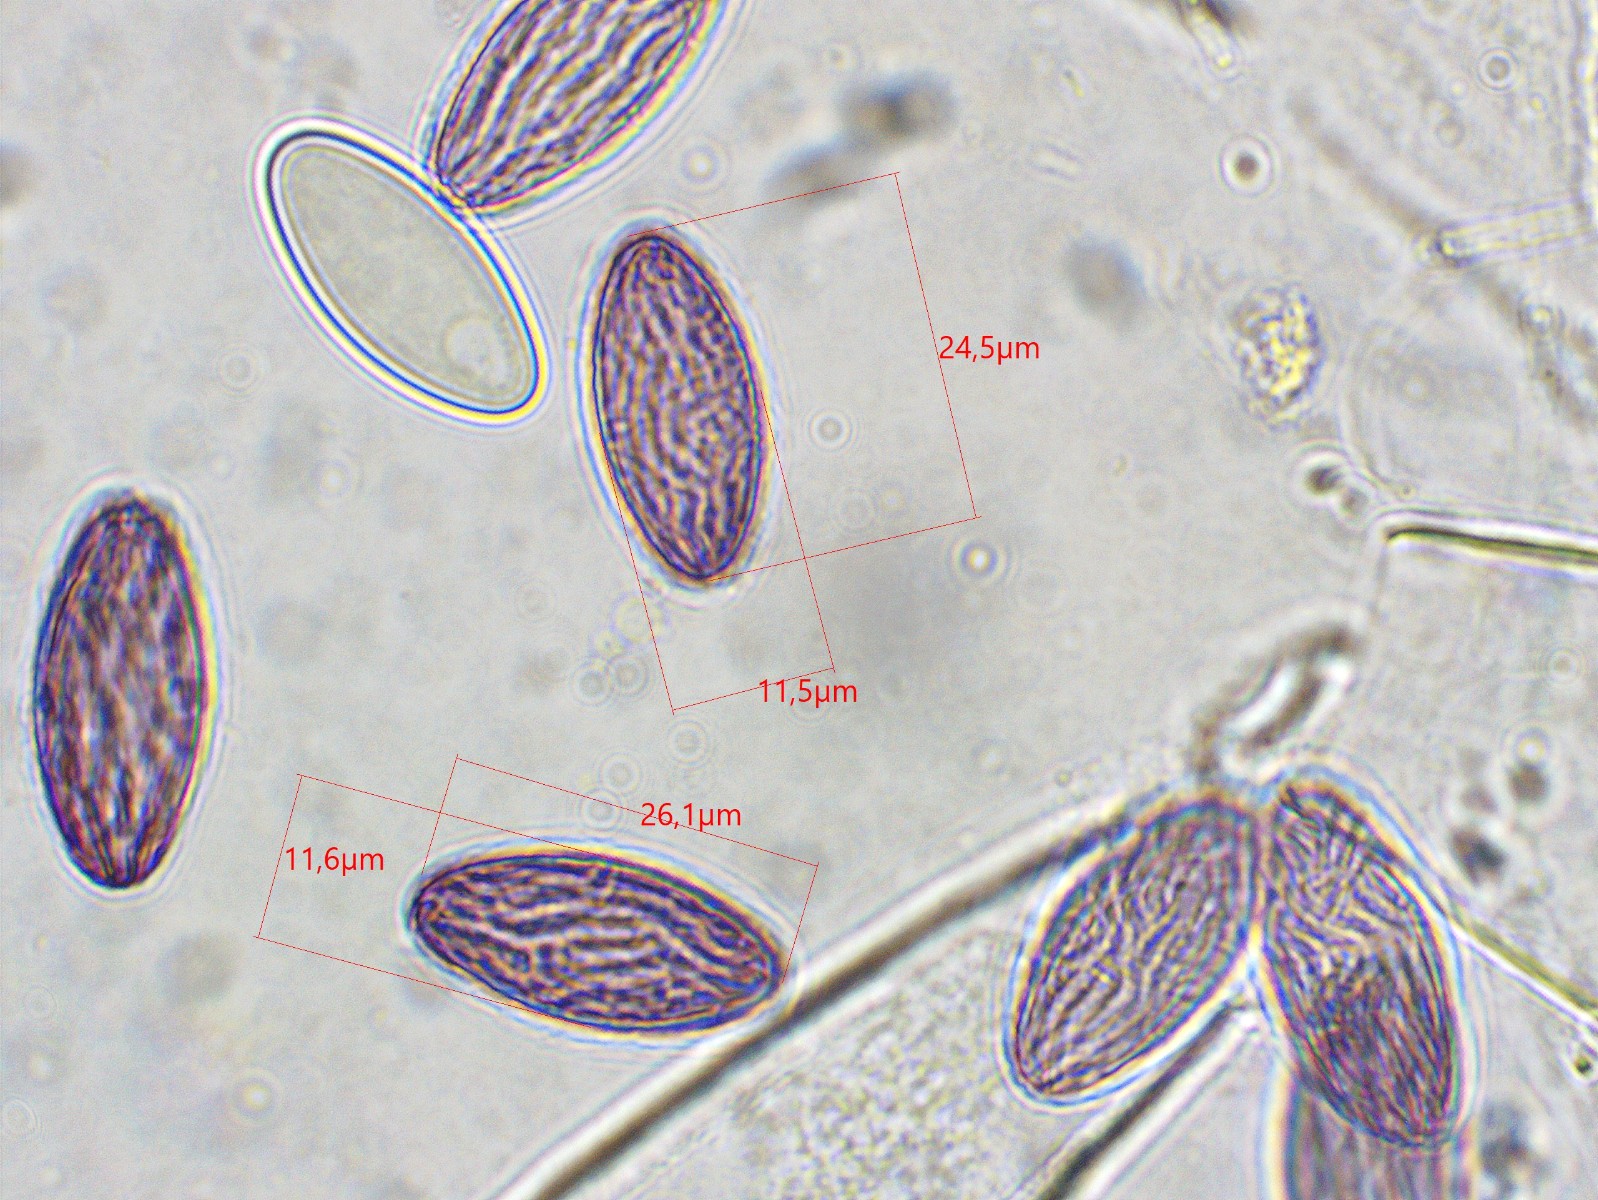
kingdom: Fungi
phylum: Ascomycota
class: Pezizomycetes
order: Pezizales
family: Ascobolaceae
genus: Ascobolus
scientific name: Ascobolus albidus
